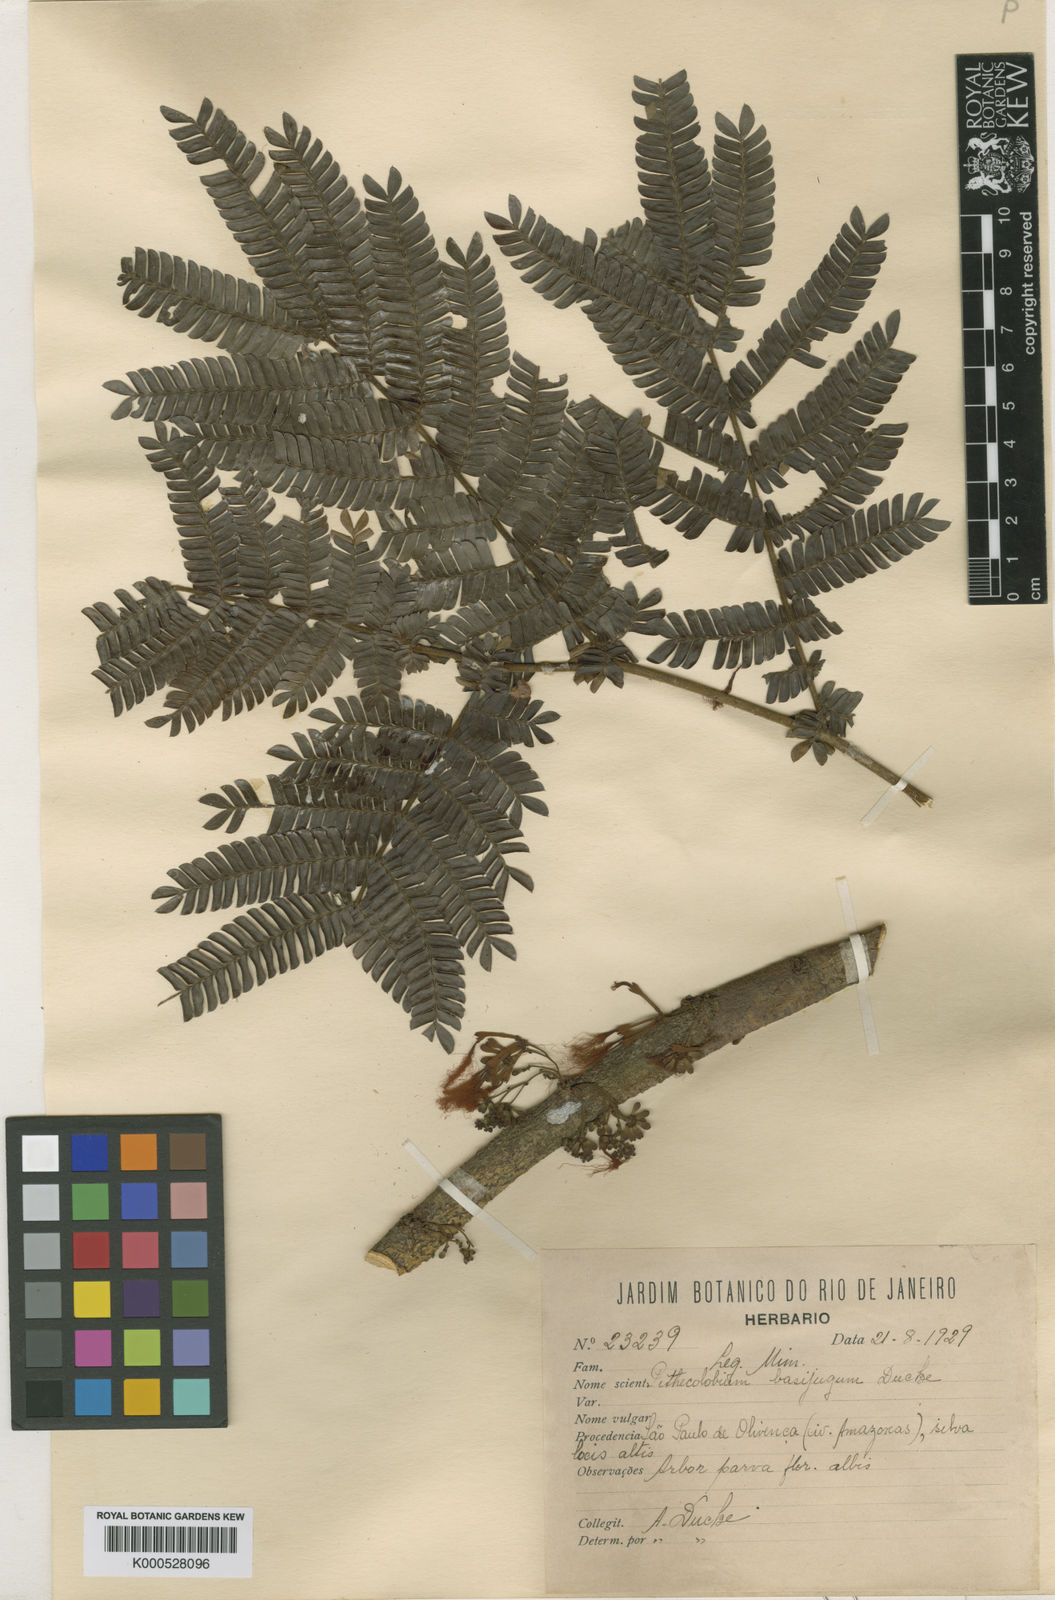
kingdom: Plantae
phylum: Tracheophyta
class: Magnoliopsida
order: Fabales
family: Fabaceae
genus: Zygia
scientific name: Zygia basijuga
